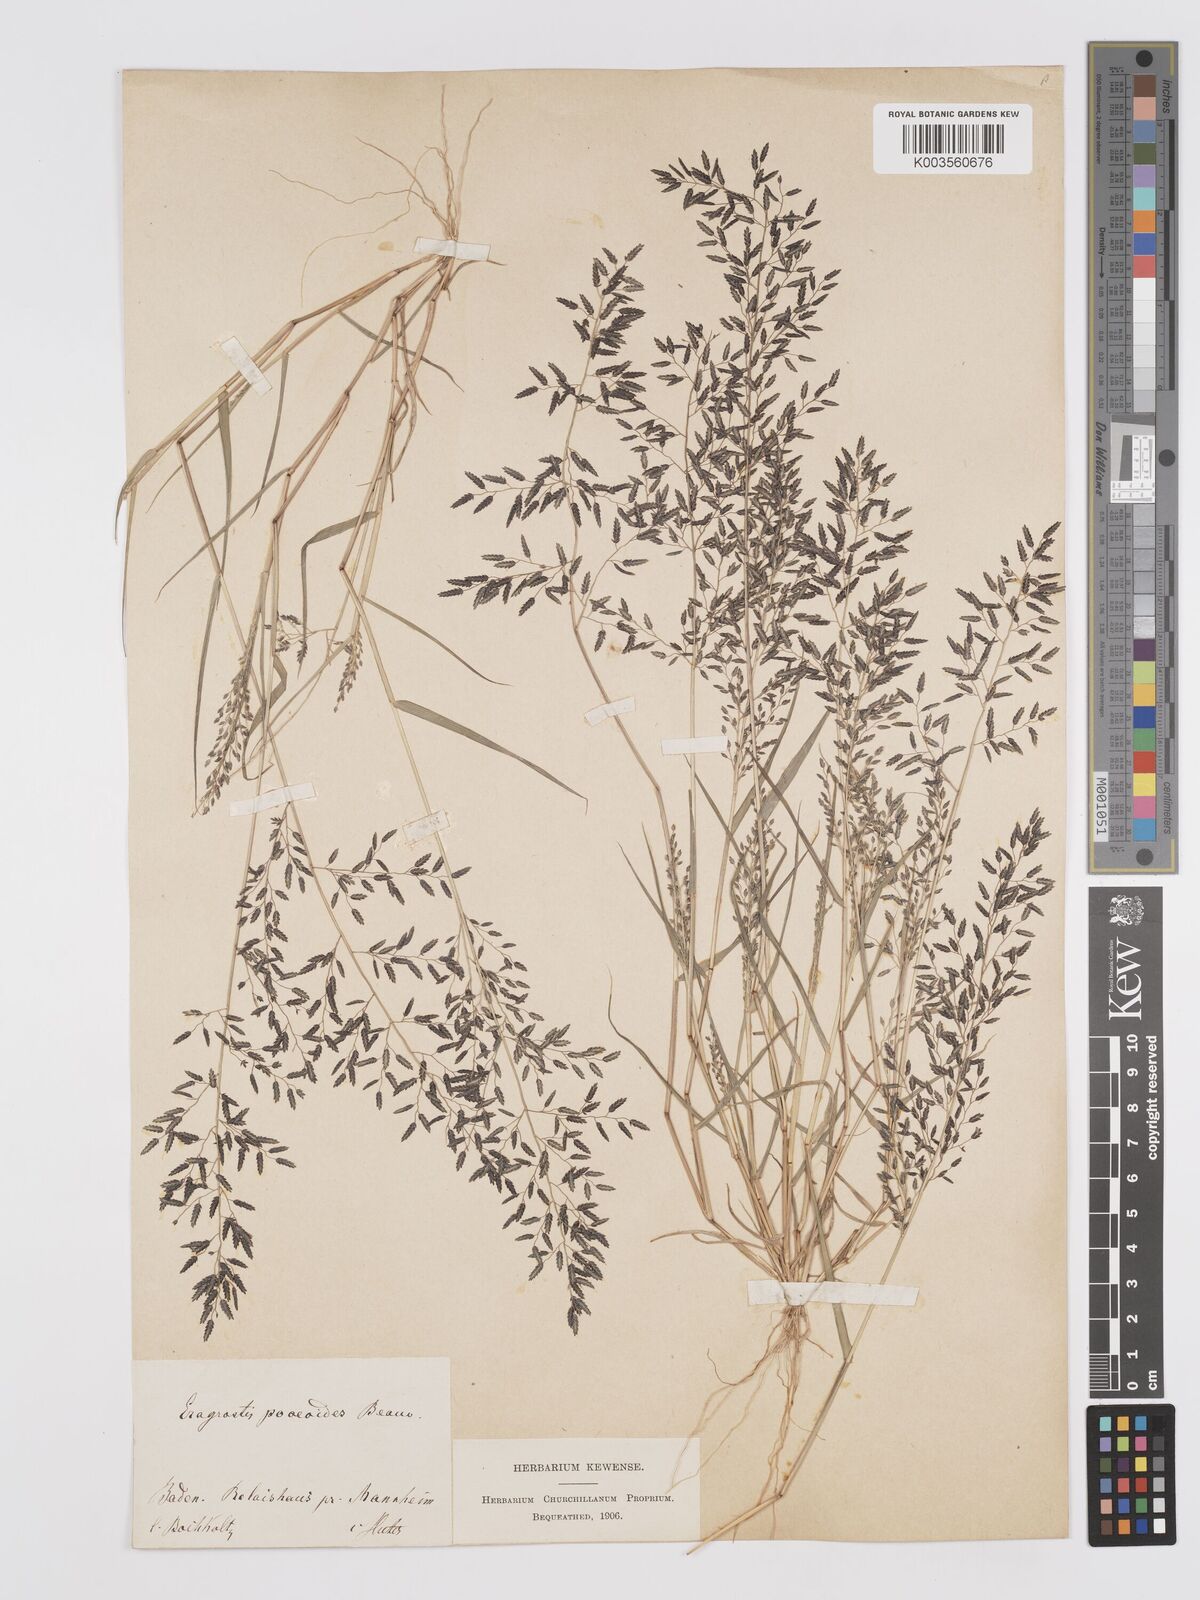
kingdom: Plantae
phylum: Tracheophyta
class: Liliopsida
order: Poales
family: Poaceae
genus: Eragrostis
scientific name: Eragrostis minor
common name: Small love-grass
